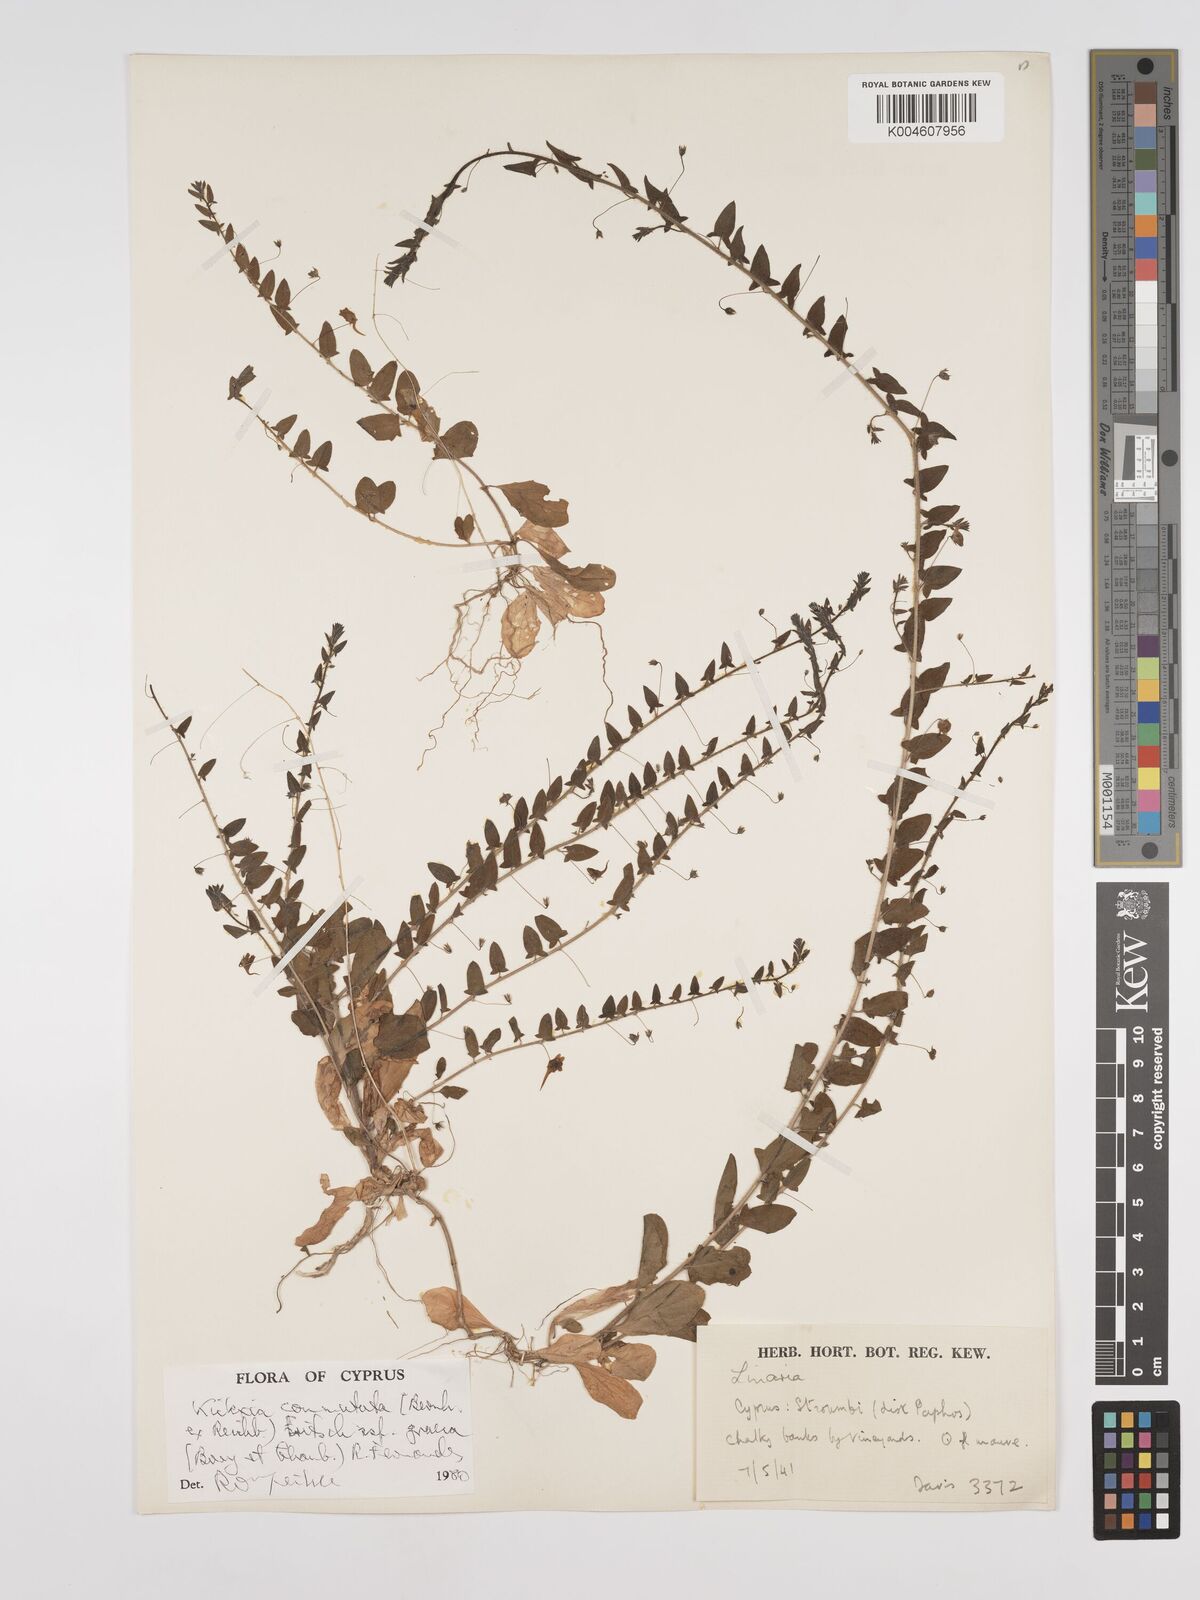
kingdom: Plantae
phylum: Tracheophyta
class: Magnoliopsida
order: Lamiales
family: Plantaginaceae
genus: Kickxia
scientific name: Kickxia commutata
